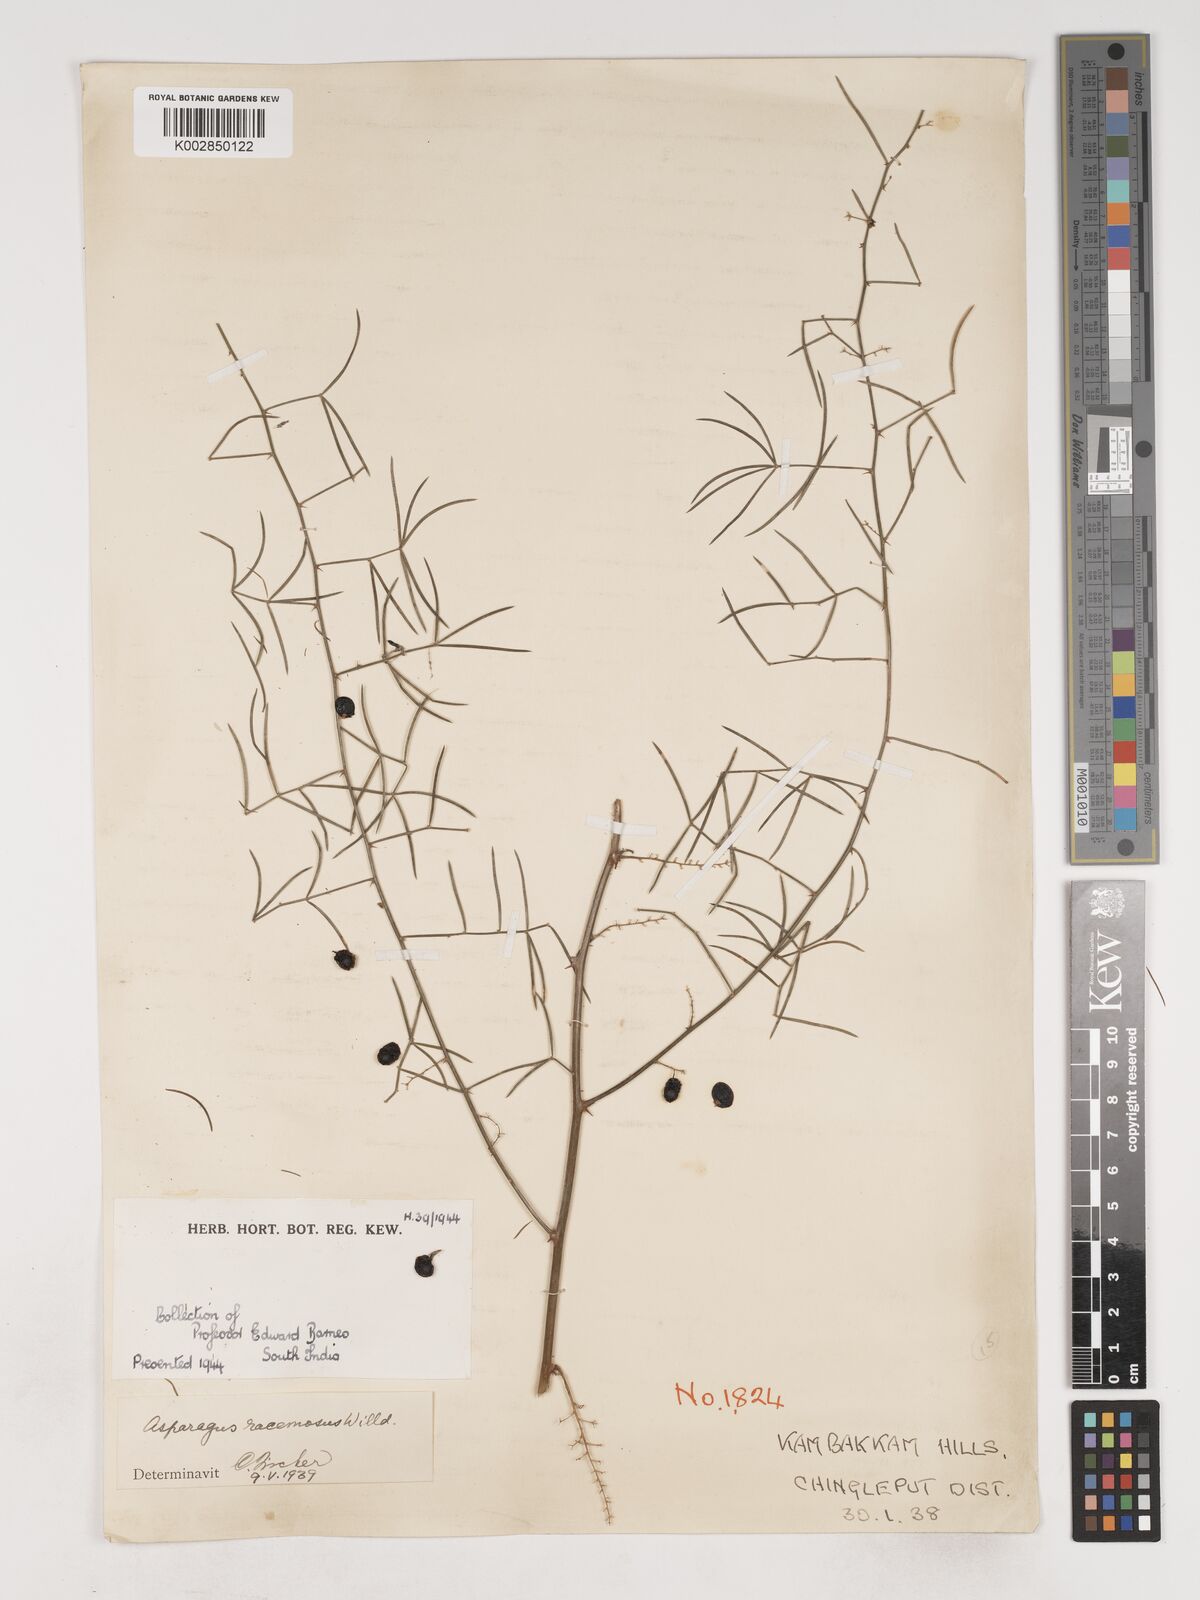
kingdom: Plantae
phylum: Tracheophyta
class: Liliopsida
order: Asparagales
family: Asparagaceae
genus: Asparagus
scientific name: Asparagus racemosus
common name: Asparagus-fern
